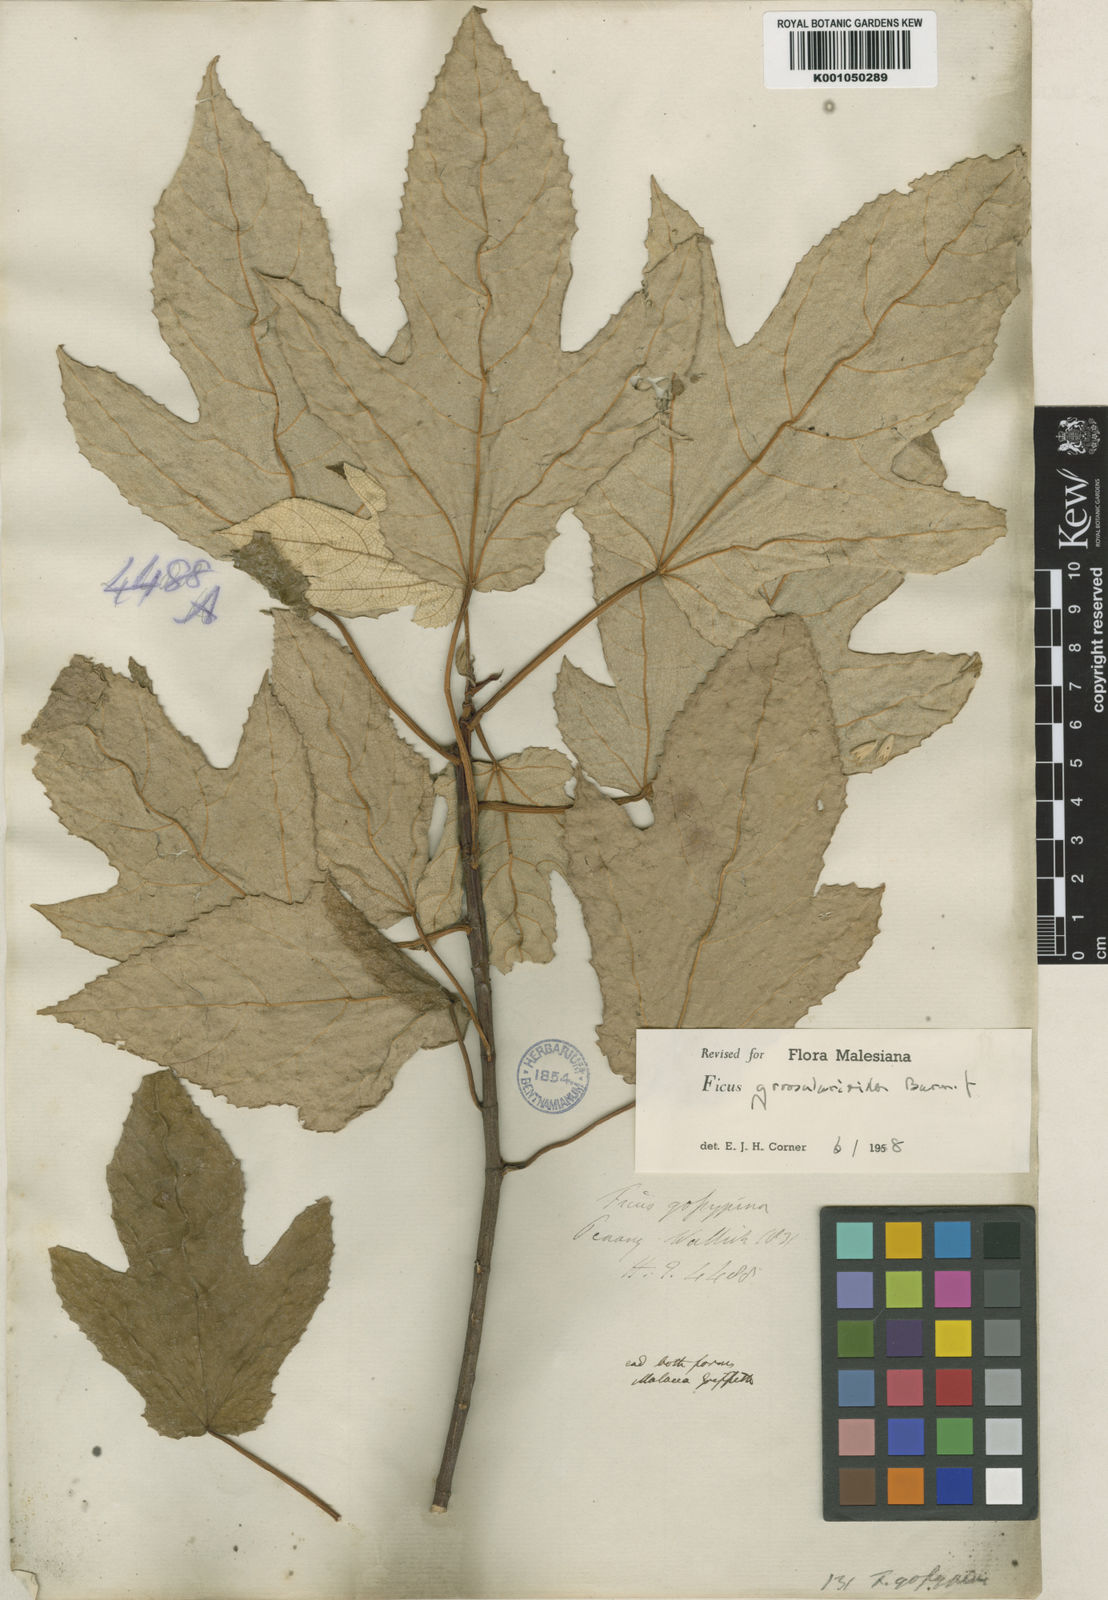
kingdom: Plantae
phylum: Tracheophyta
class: Magnoliopsida
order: Rosales
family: Moraceae
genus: Ficus
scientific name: Ficus grossularioides
